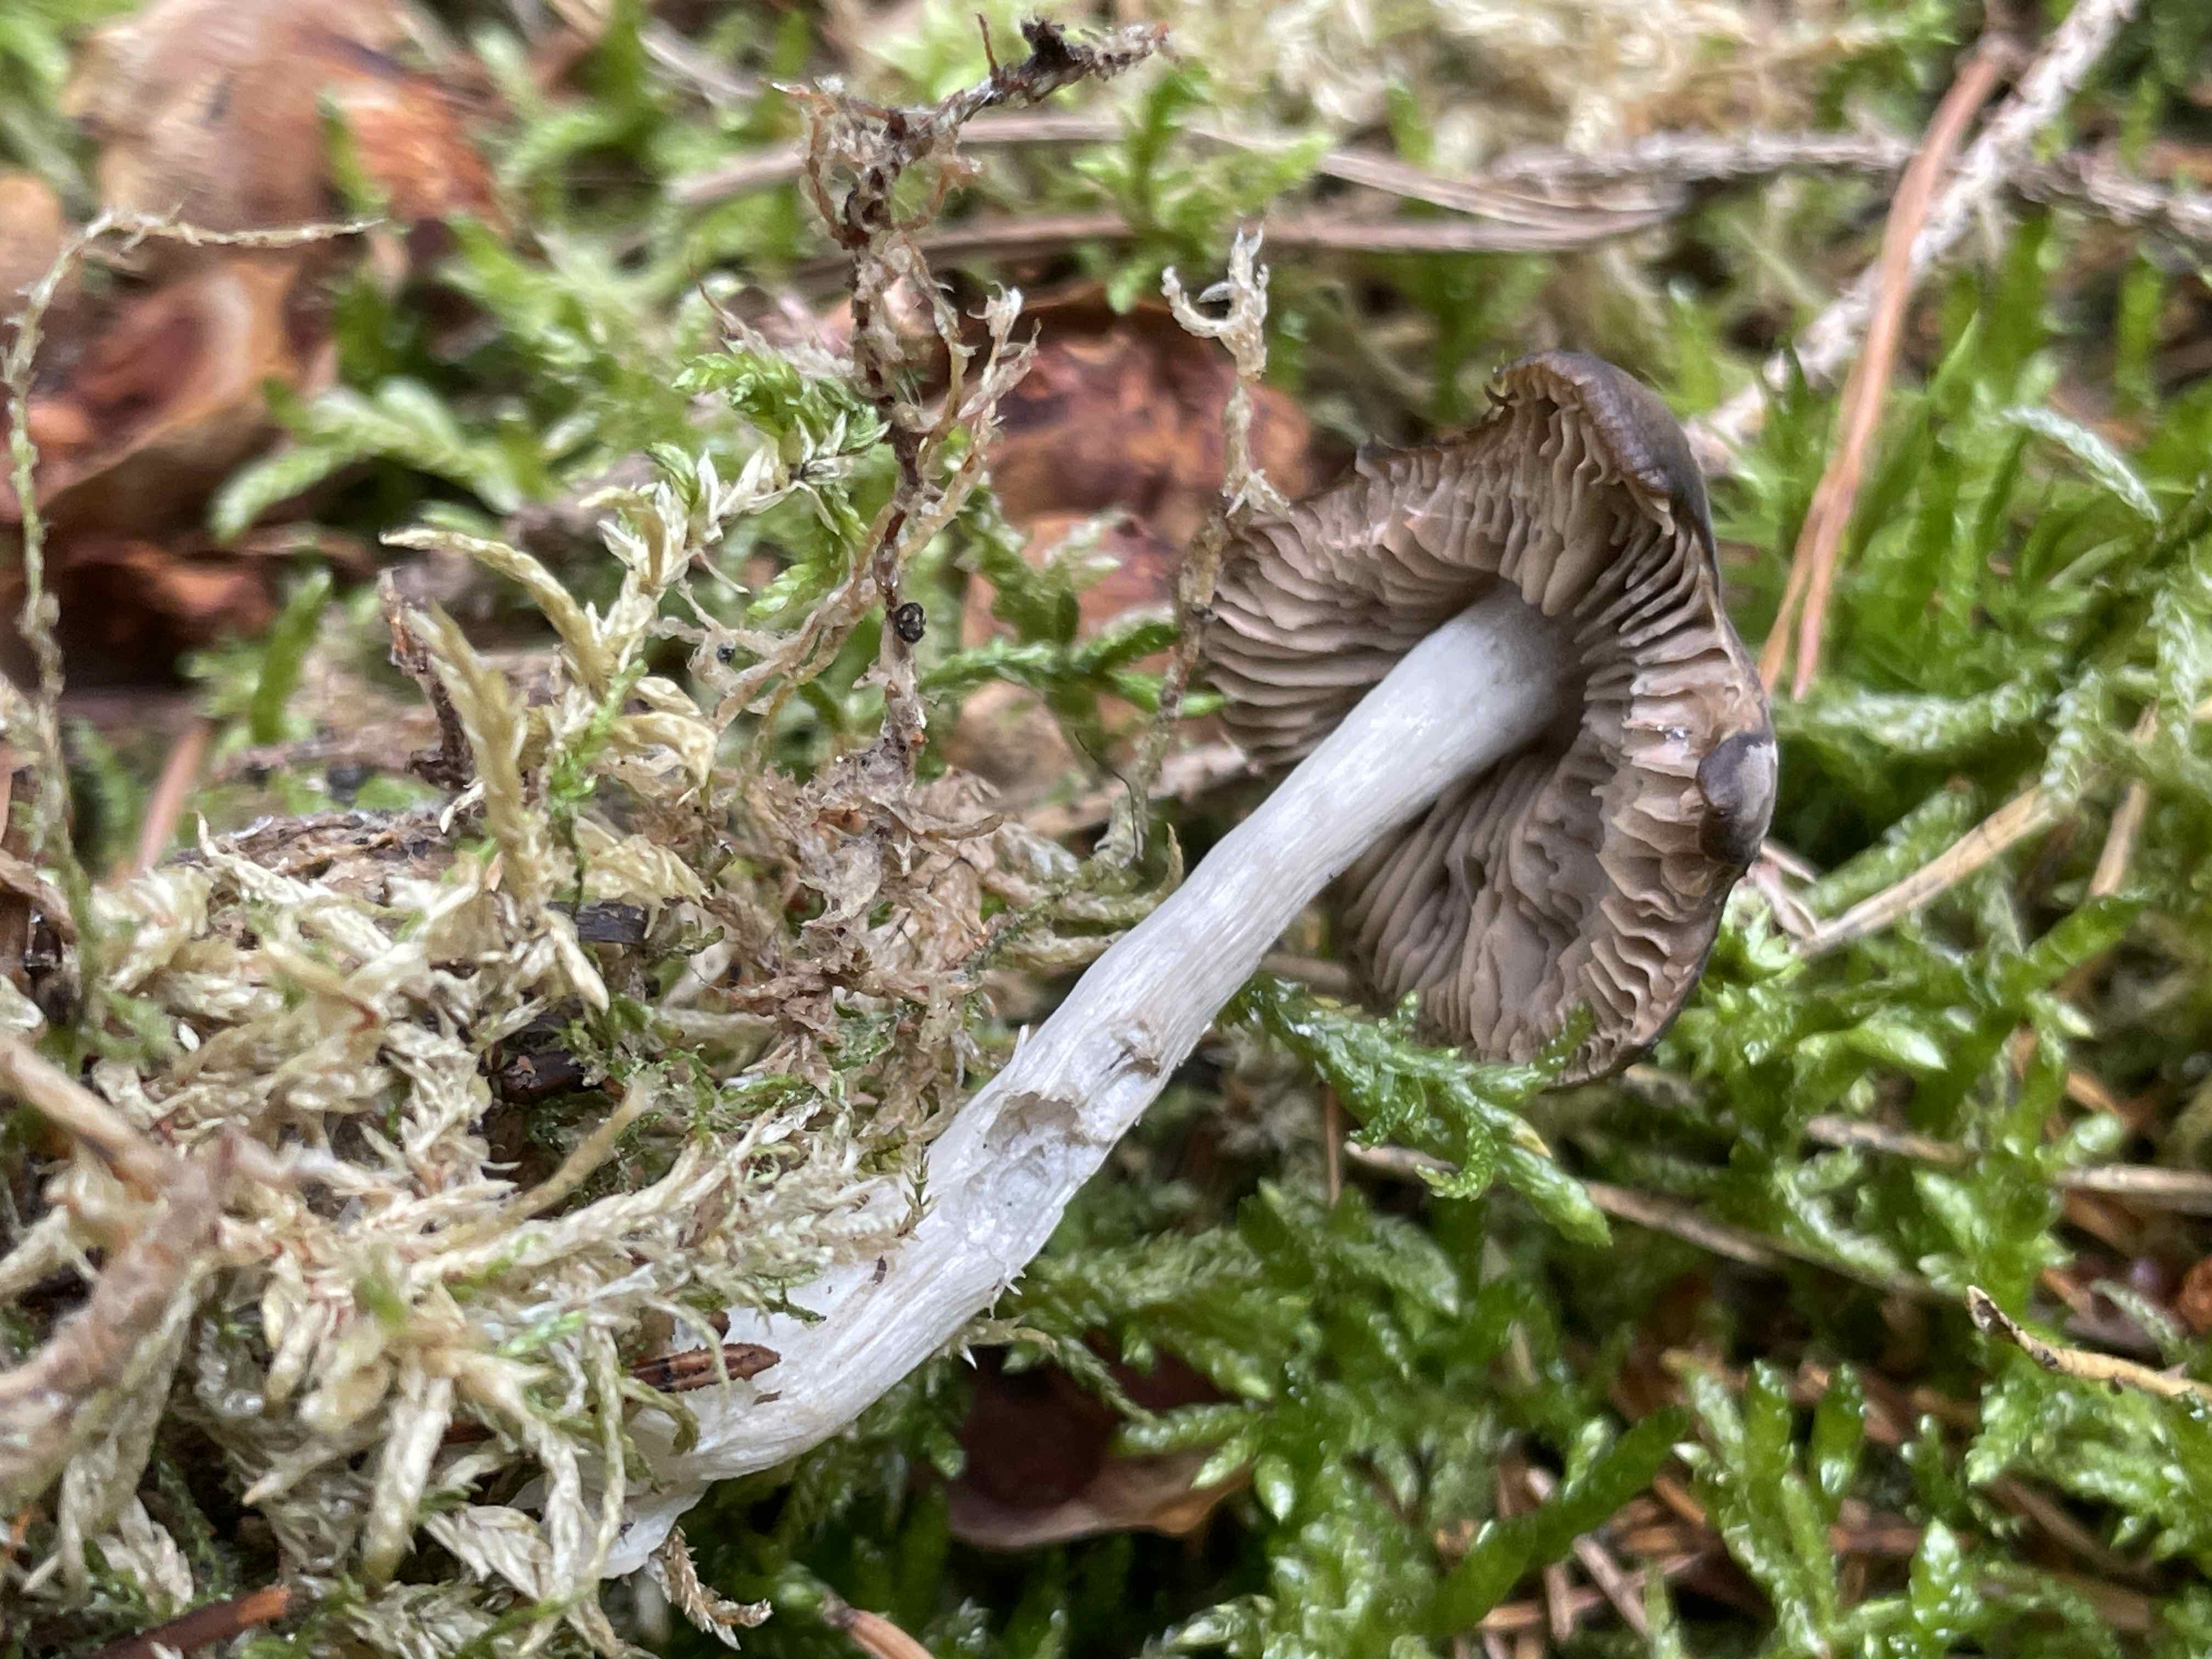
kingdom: Fungi
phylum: Basidiomycota
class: Agaricomycetes
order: Agaricales
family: Entolomataceae
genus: Entocybe
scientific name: Entocybe turbida
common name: plantage-rødblad
